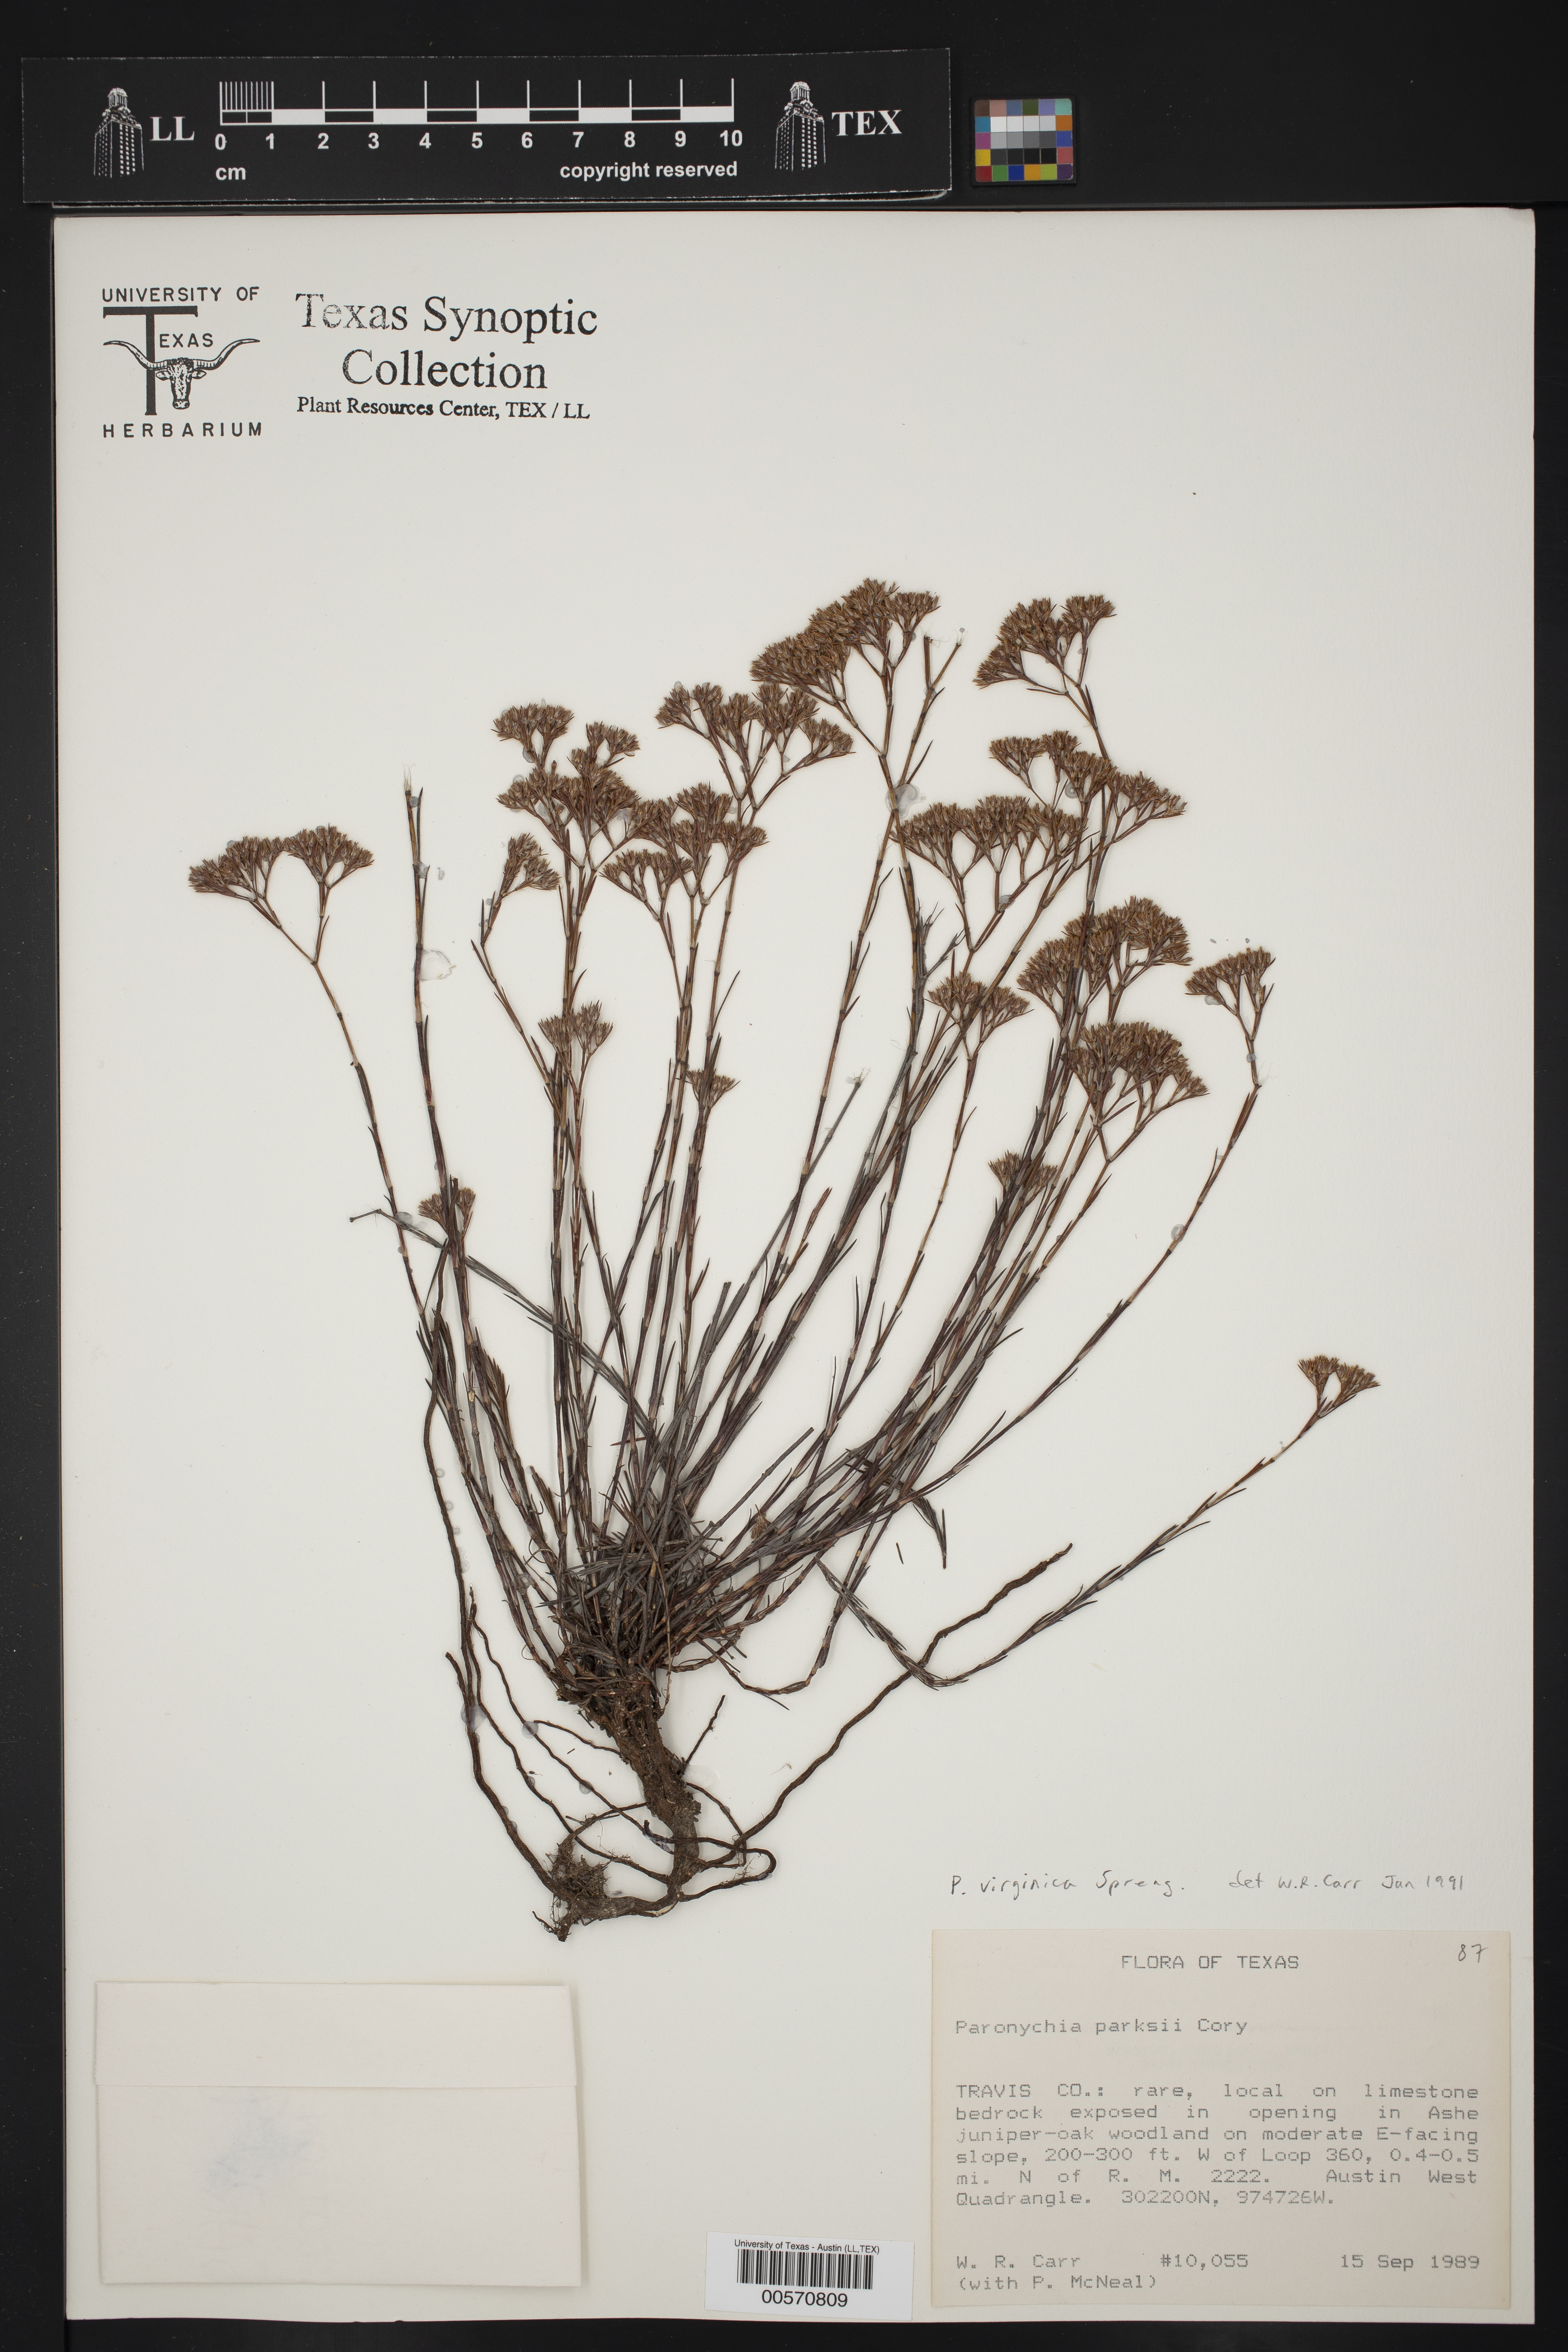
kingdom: Plantae
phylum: Tracheophyta
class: Magnoliopsida
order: Caryophyllales
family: Caryophyllaceae
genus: Paronychia
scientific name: Paronychia virginica
